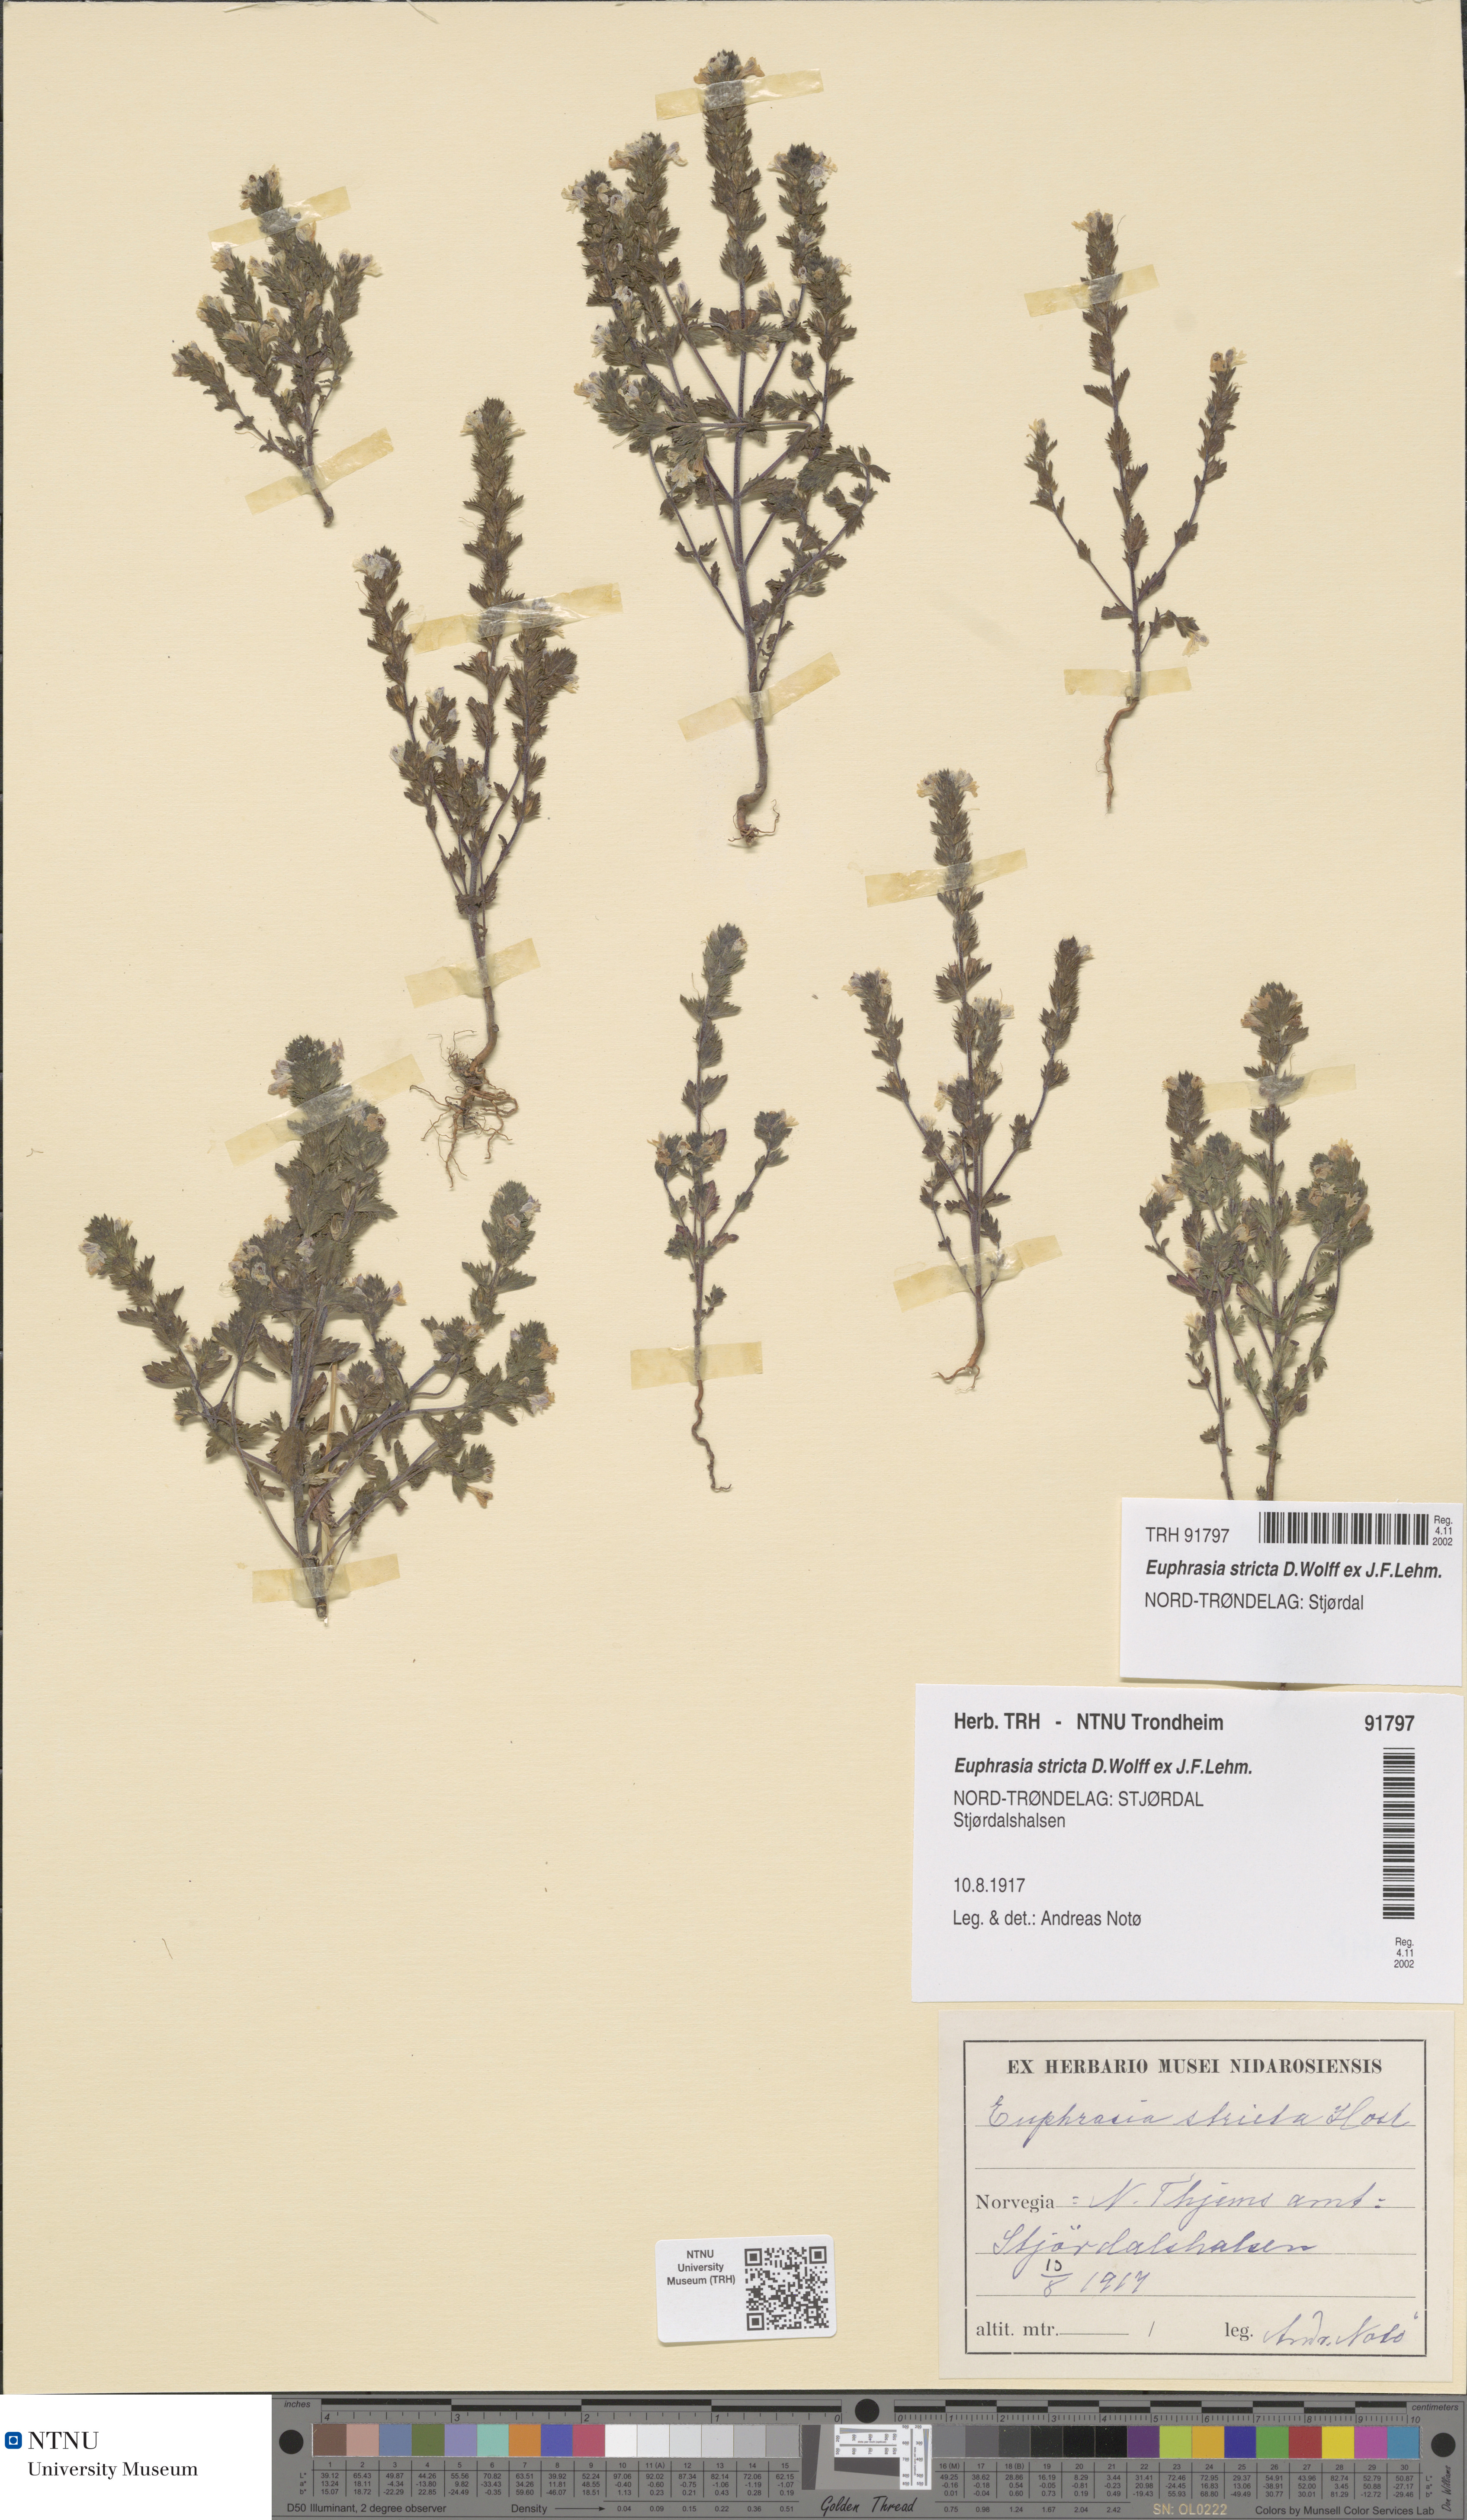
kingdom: Plantae
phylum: Tracheophyta
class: Magnoliopsida
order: Lamiales
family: Orobanchaceae
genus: Euphrasia
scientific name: Euphrasia stricta
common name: Drug eyebright
